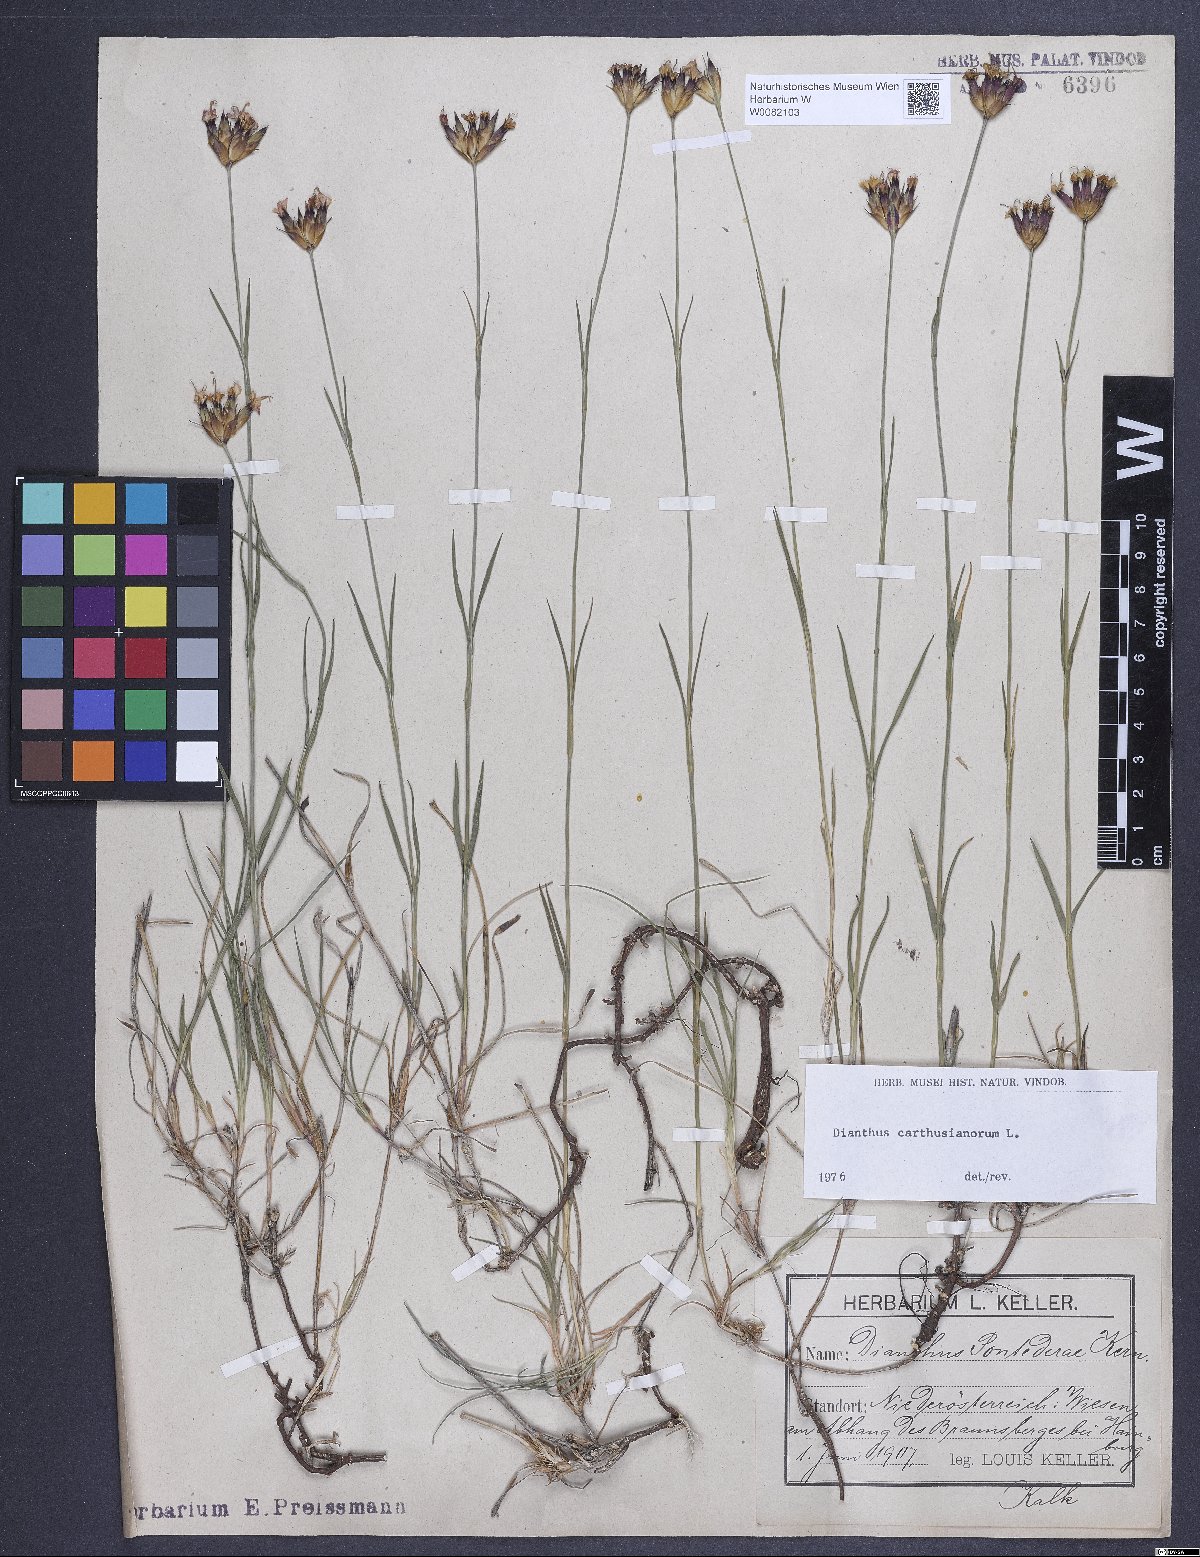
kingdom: Plantae
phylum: Tracheophyta
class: Magnoliopsida
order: Caryophyllales
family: Caryophyllaceae
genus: Dianthus
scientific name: Dianthus carthusianorum
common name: Carthusian pink
